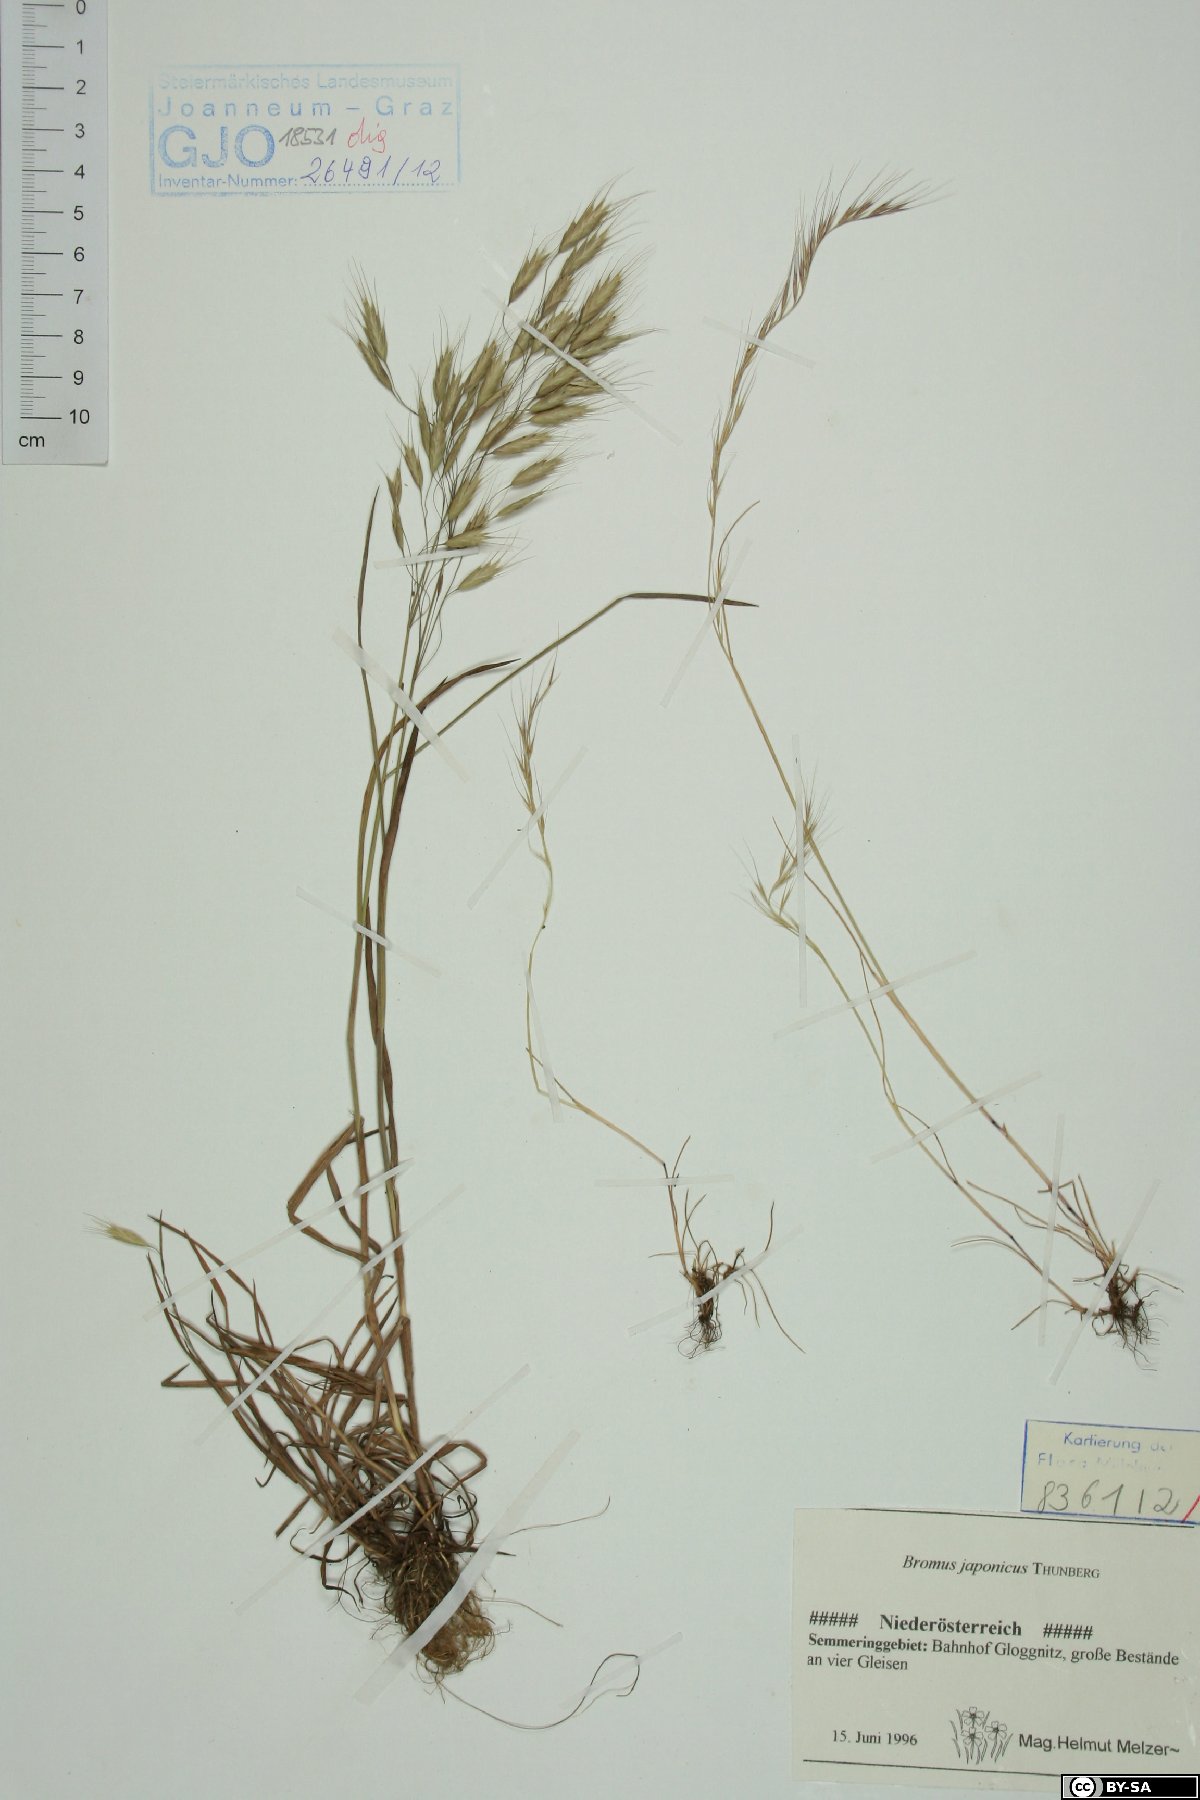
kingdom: Plantae
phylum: Tracheophyta
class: Liliopsida
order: Poales
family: Poaceae
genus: Bromus
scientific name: Bromus japonicus
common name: Japanese brome
